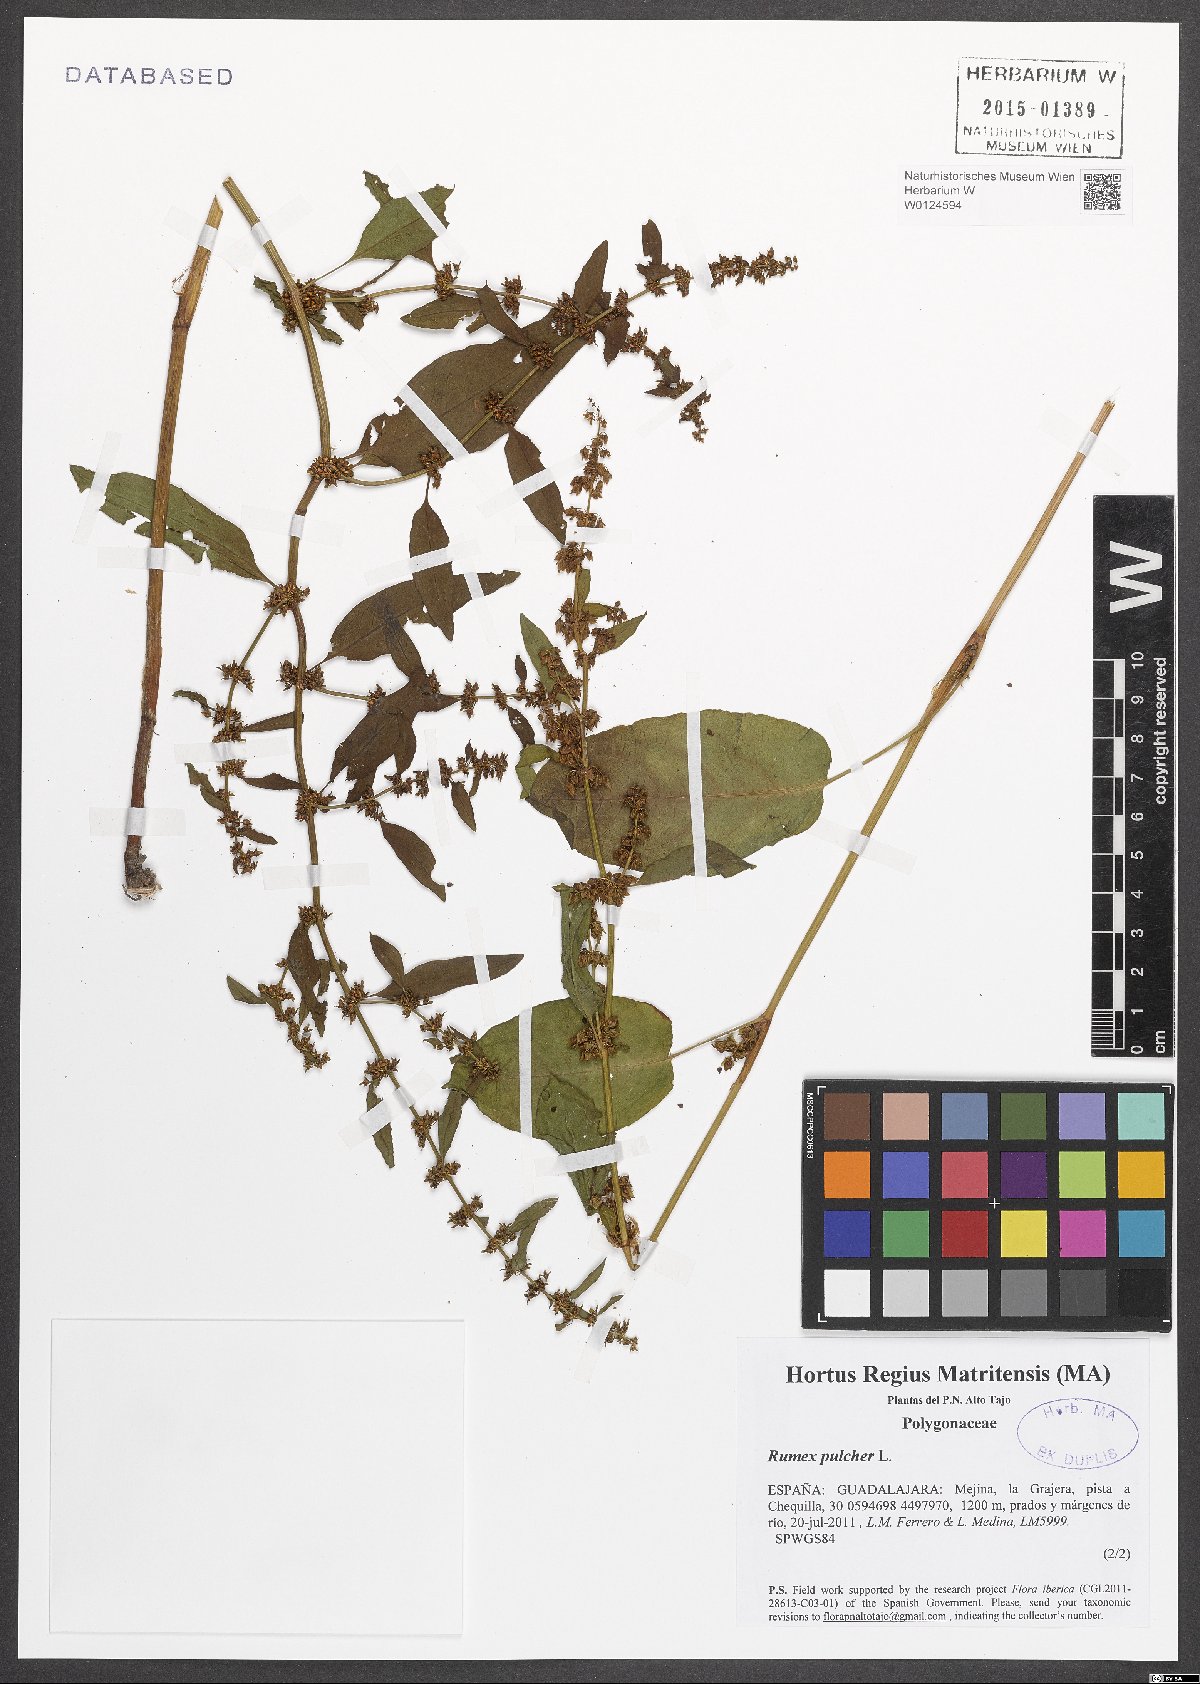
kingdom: Plantae
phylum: Tracheophyta
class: Magnoliopsida
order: Caryophyllales
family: Polygonaceae
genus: Rumex
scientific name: Rumex pulcher
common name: Fiddle dock
